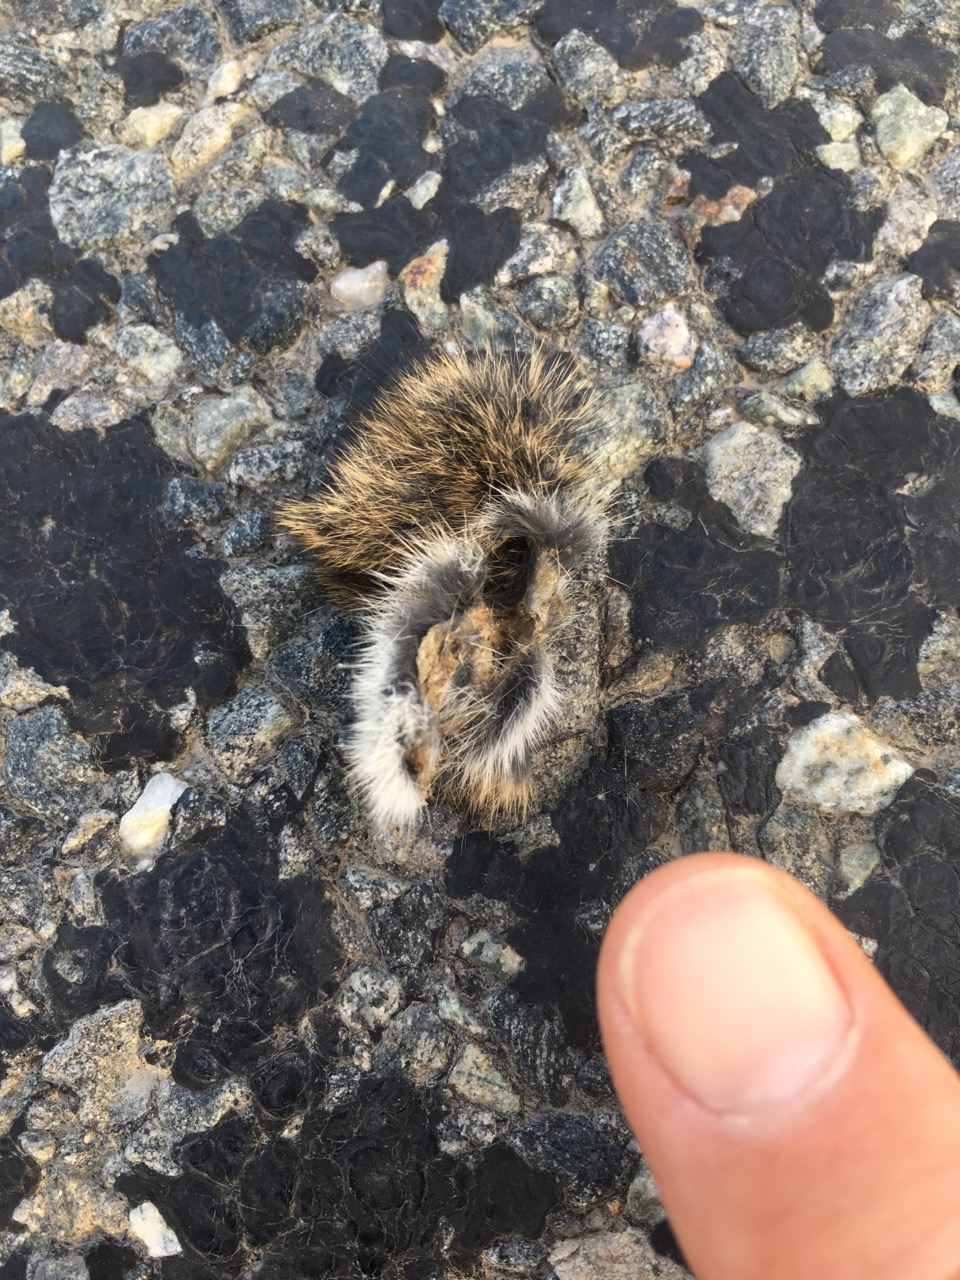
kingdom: Animalia
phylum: Chordata
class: Mammalia
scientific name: Mammalia
